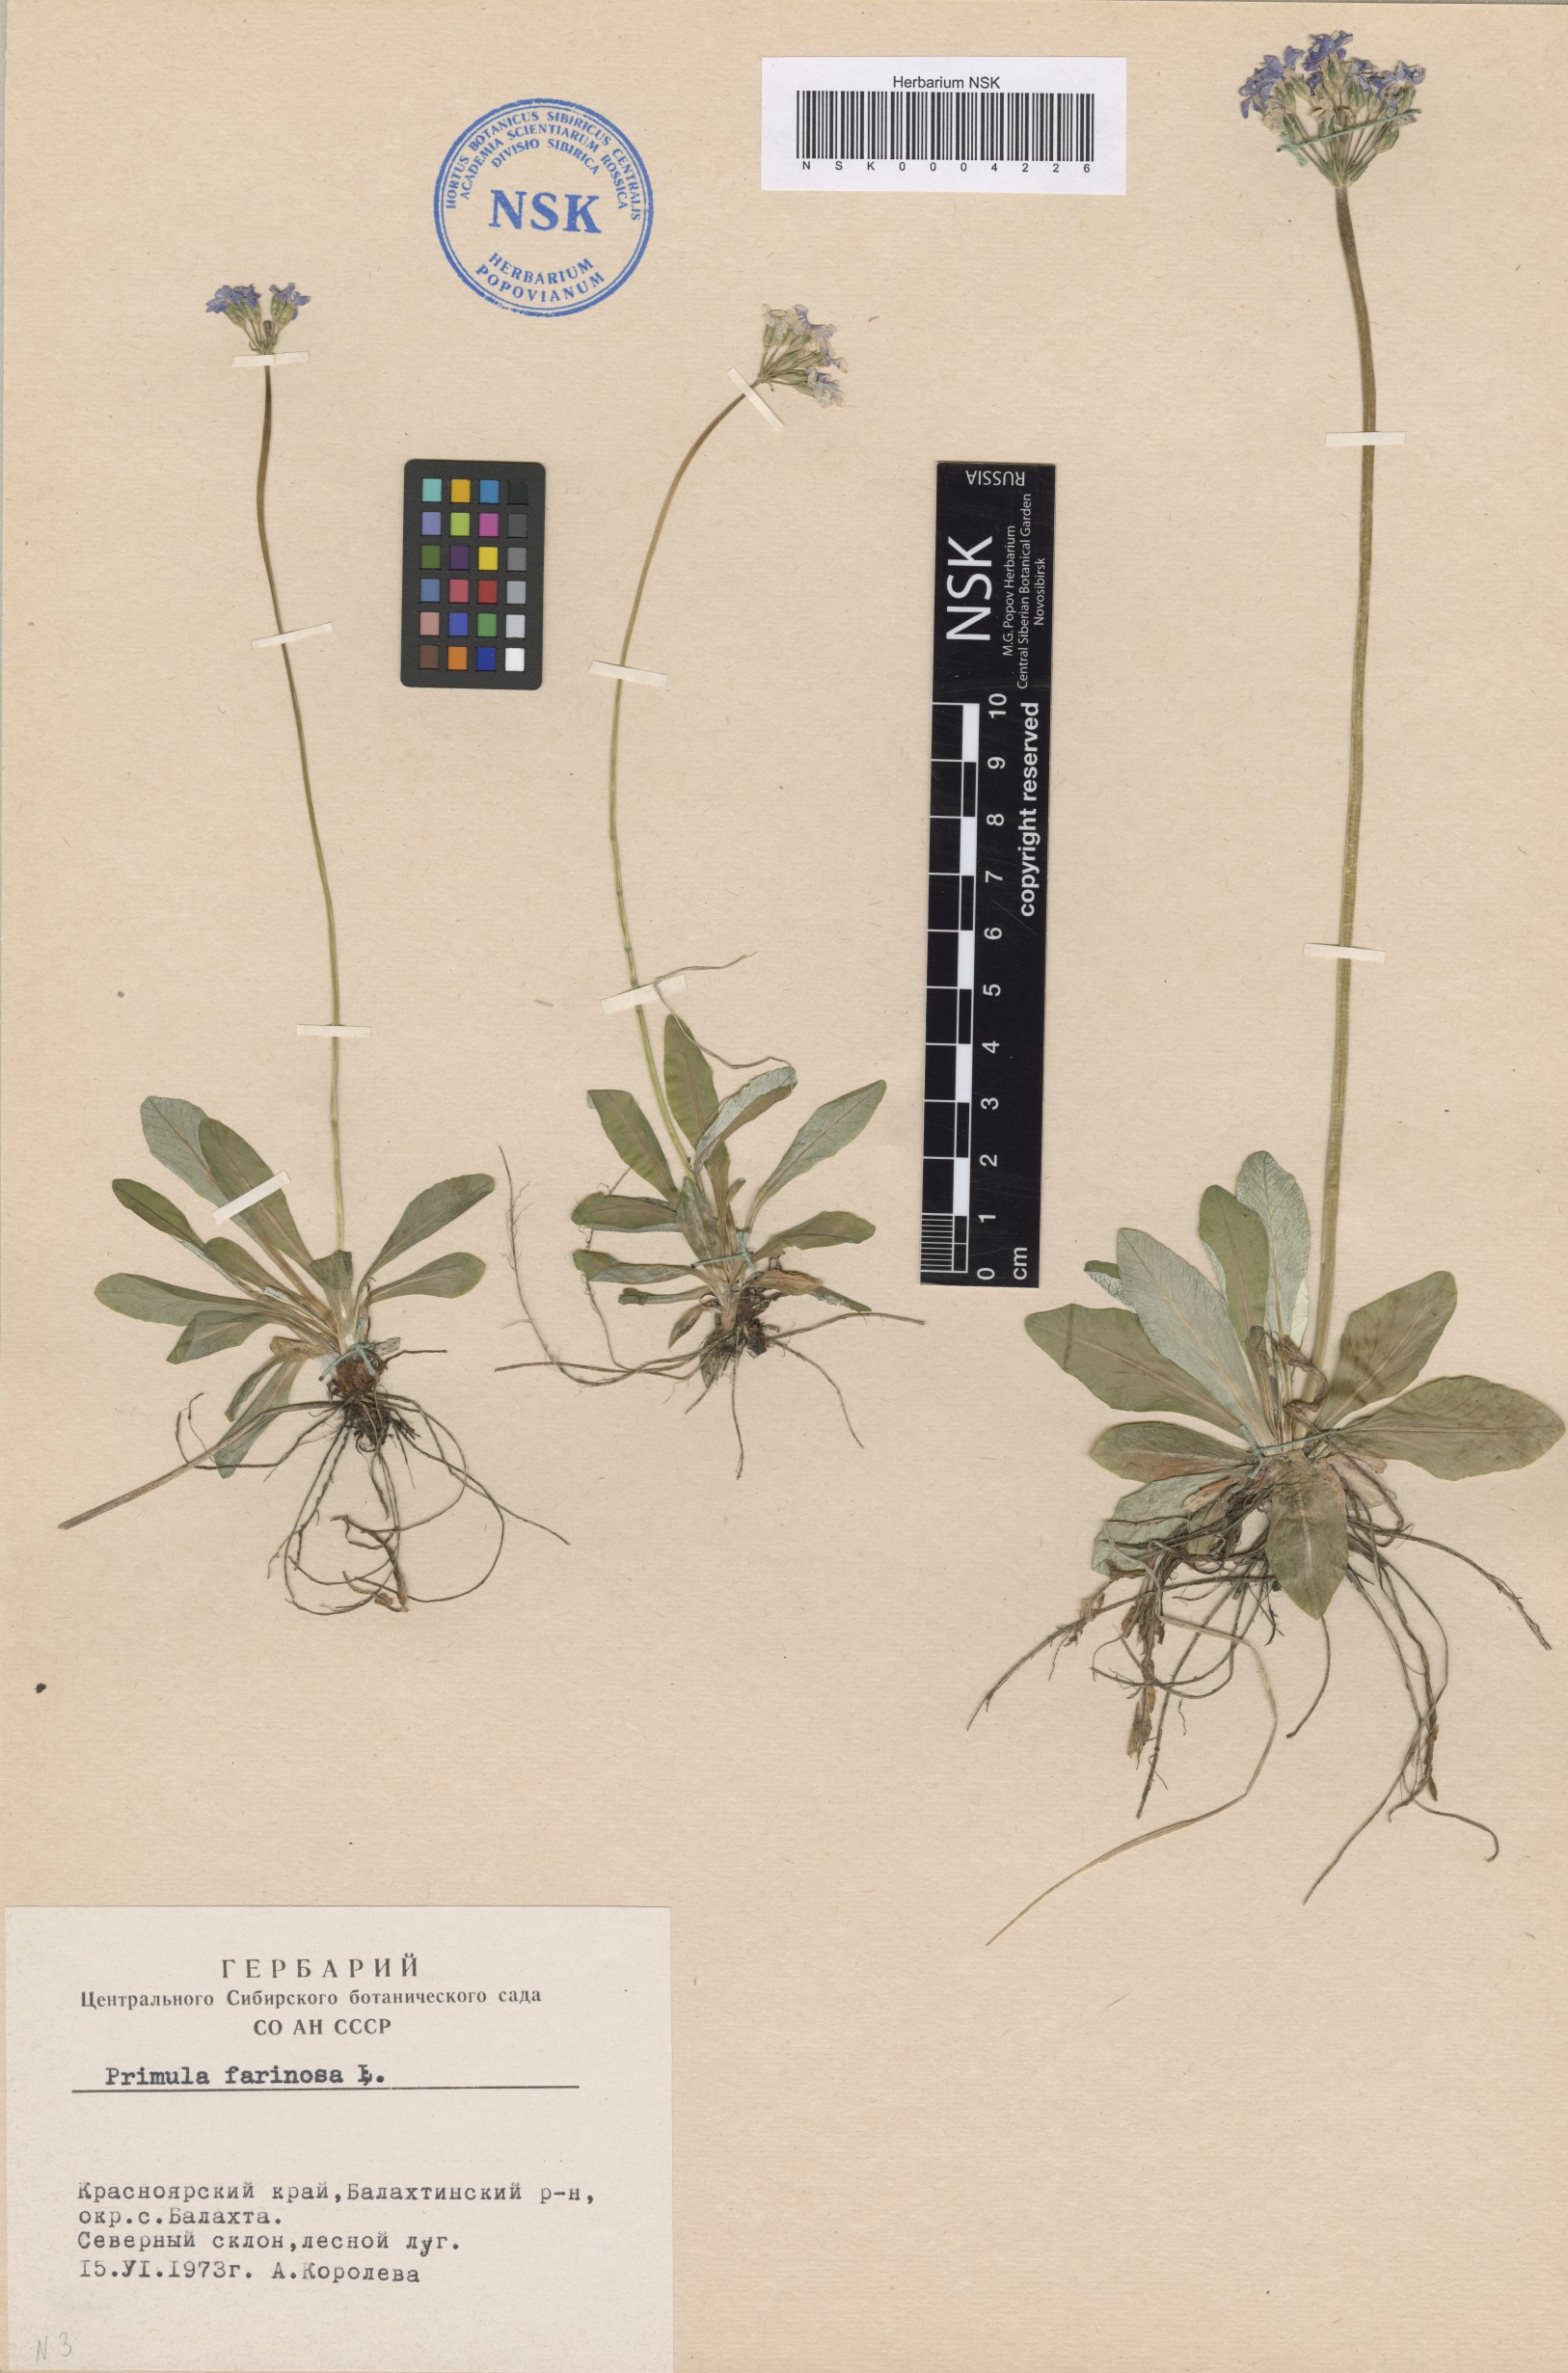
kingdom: Plantae
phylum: Tracheophyta
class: Magnoliopsida
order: Ericales
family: Primulaceae
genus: Primula
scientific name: Primula farinosa
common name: Bird's-eye primrose
